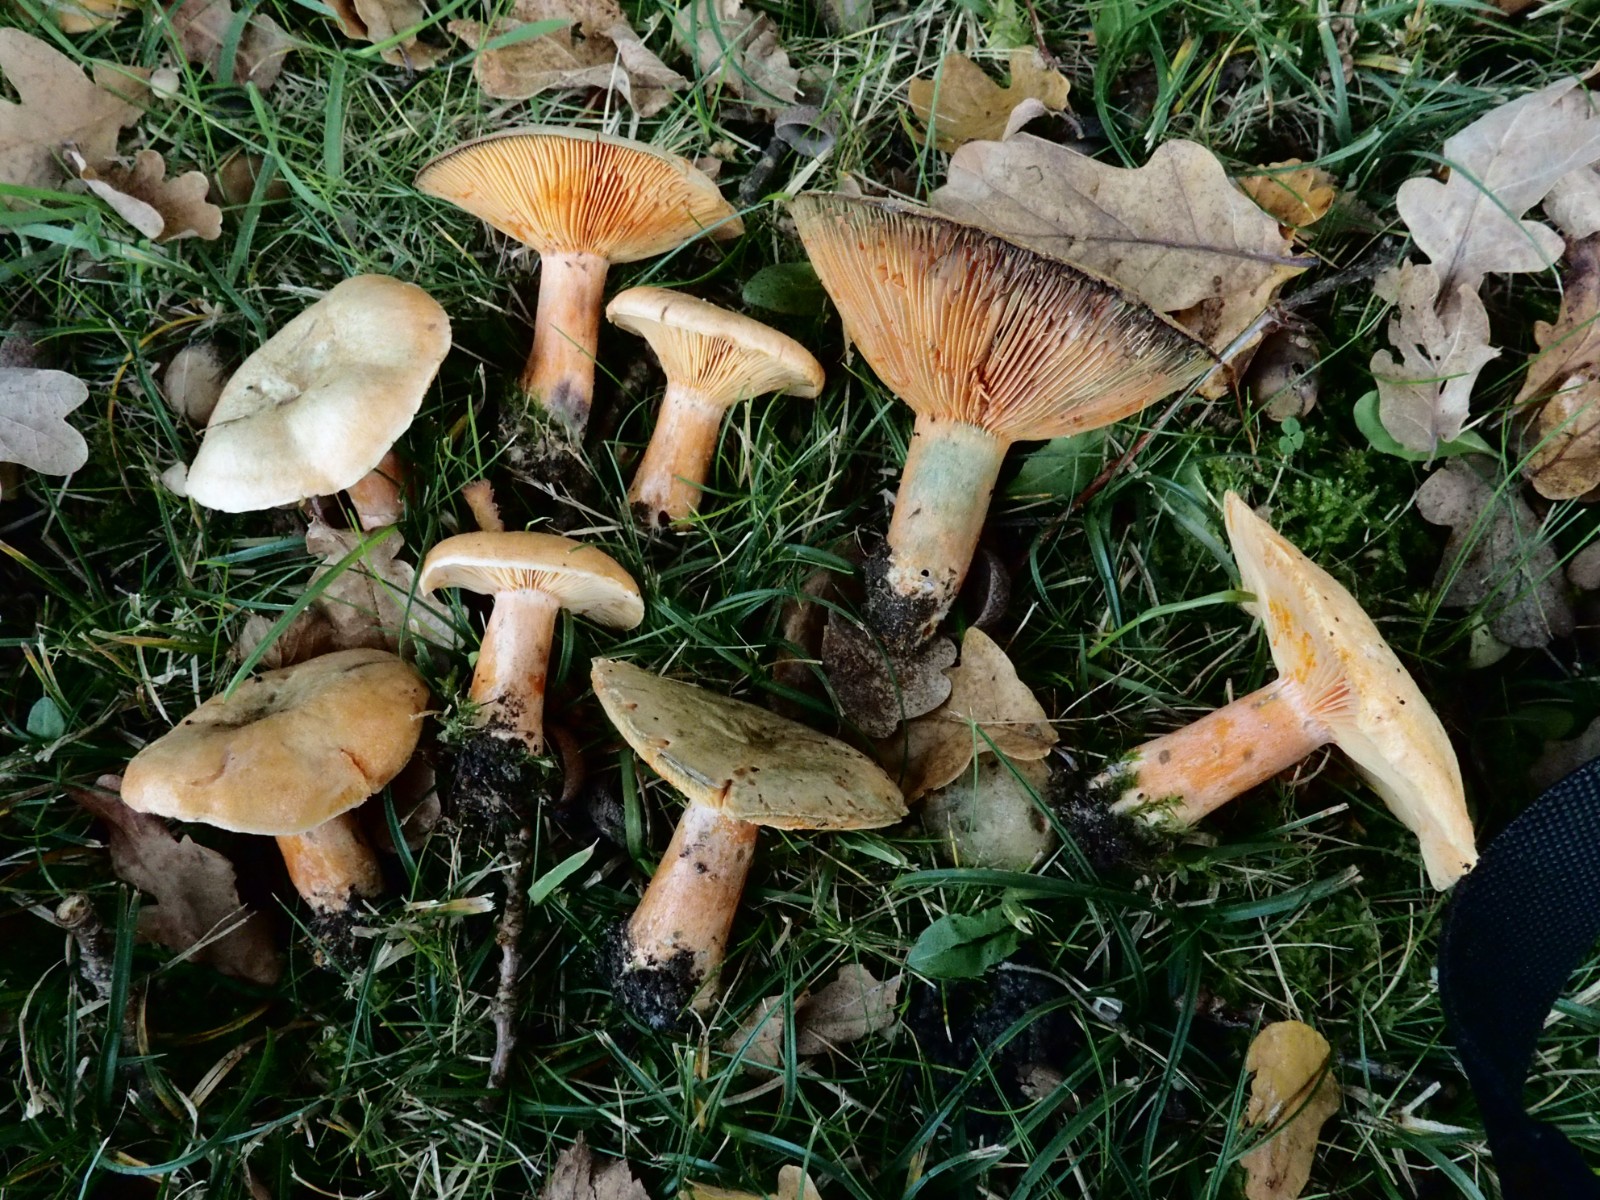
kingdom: Fungi
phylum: Basidiomycota
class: Agaricomycetes
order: Russulales
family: Russulaceae
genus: Lactarius
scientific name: Lactarius deterrimus
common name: gran-mælkehat
